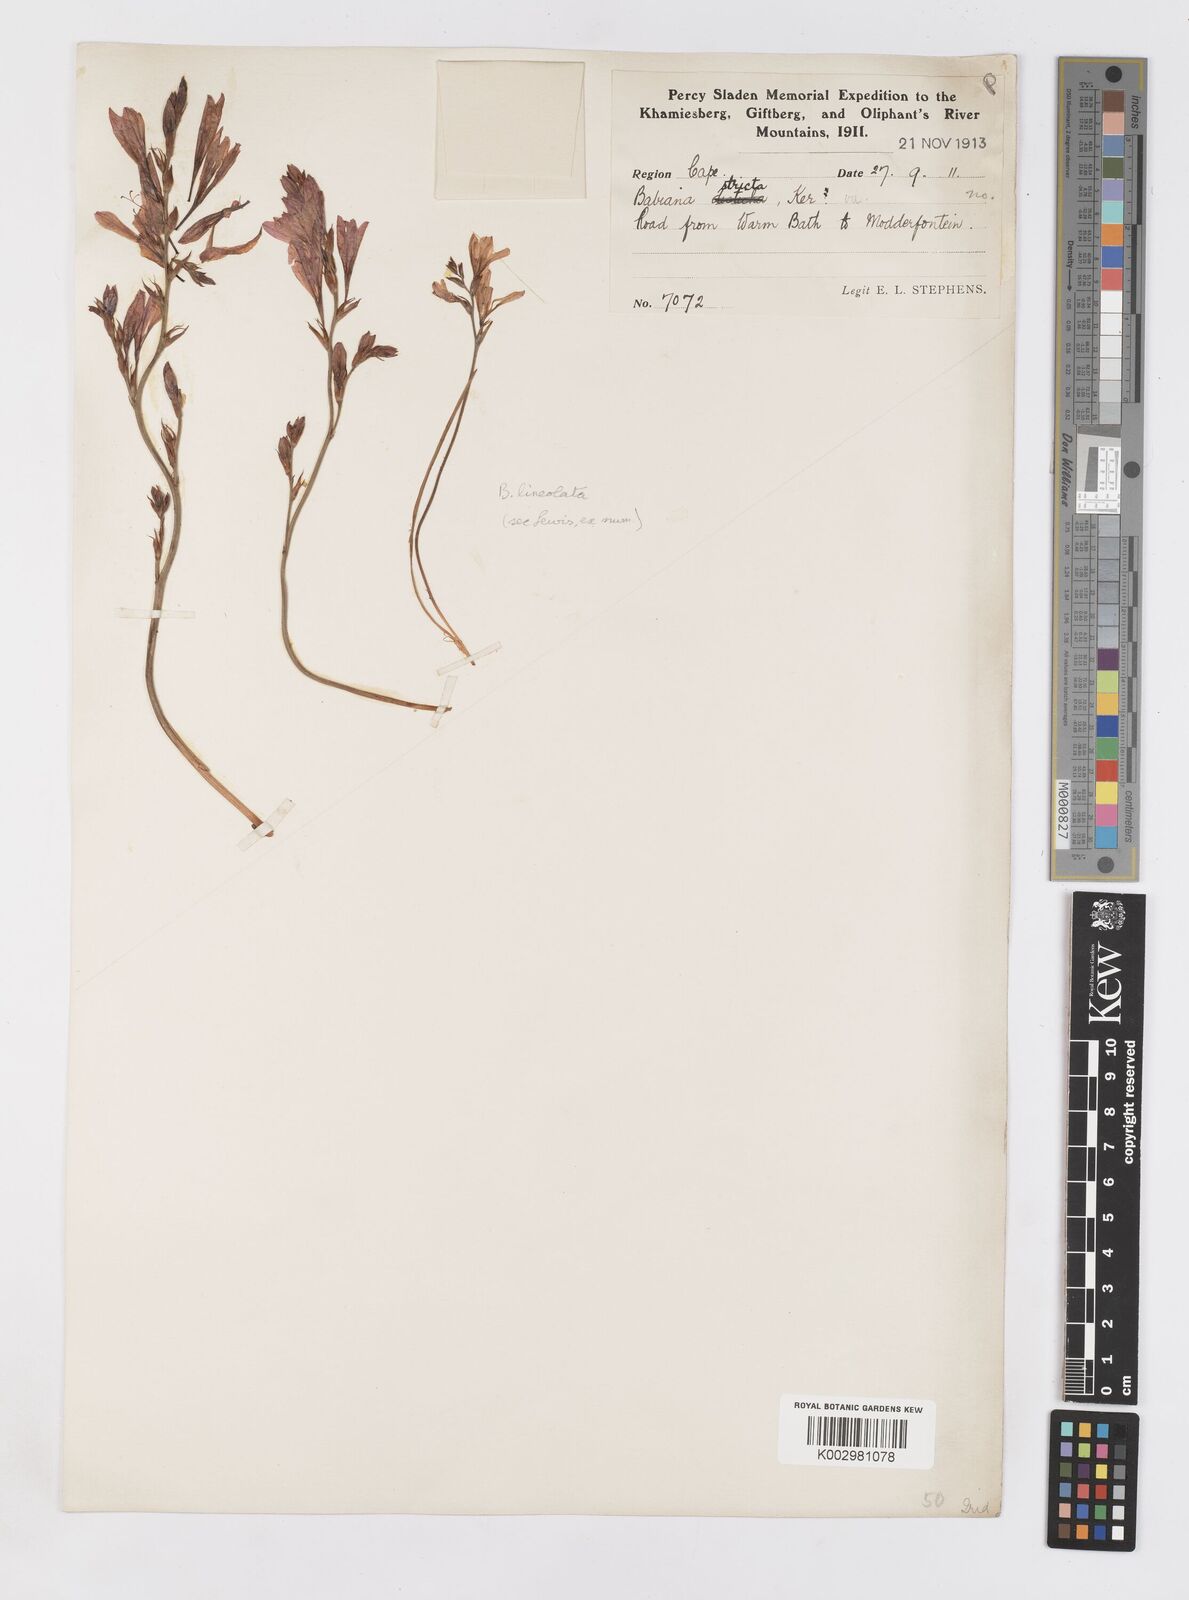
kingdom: Plantae
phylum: Tracheophyta
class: Liliopsida
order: Asparagales
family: Iridaceae
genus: Babiana
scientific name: Babiana lineolata
